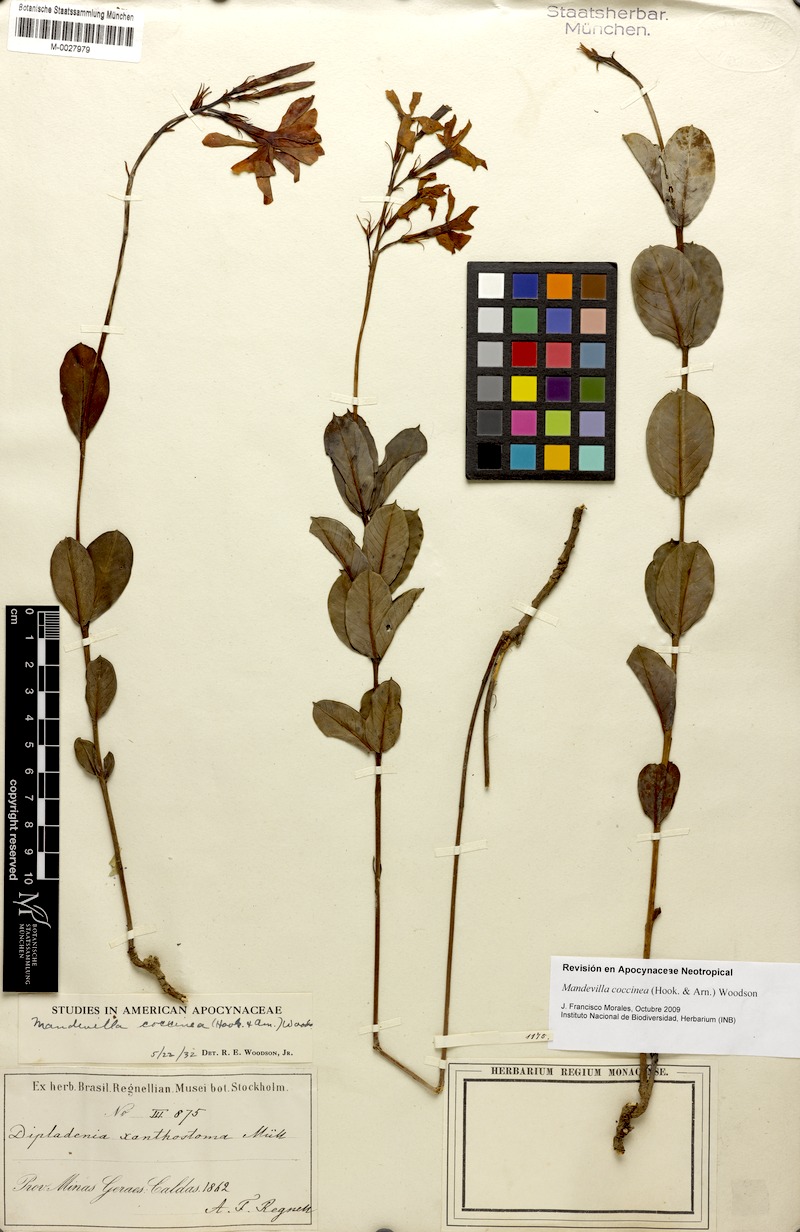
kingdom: Plantae
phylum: Tracheophyta
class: Magnoliopsida
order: Gentianales
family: Apocynaceae
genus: Mandevilla
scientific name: Mandevilla coccinea
